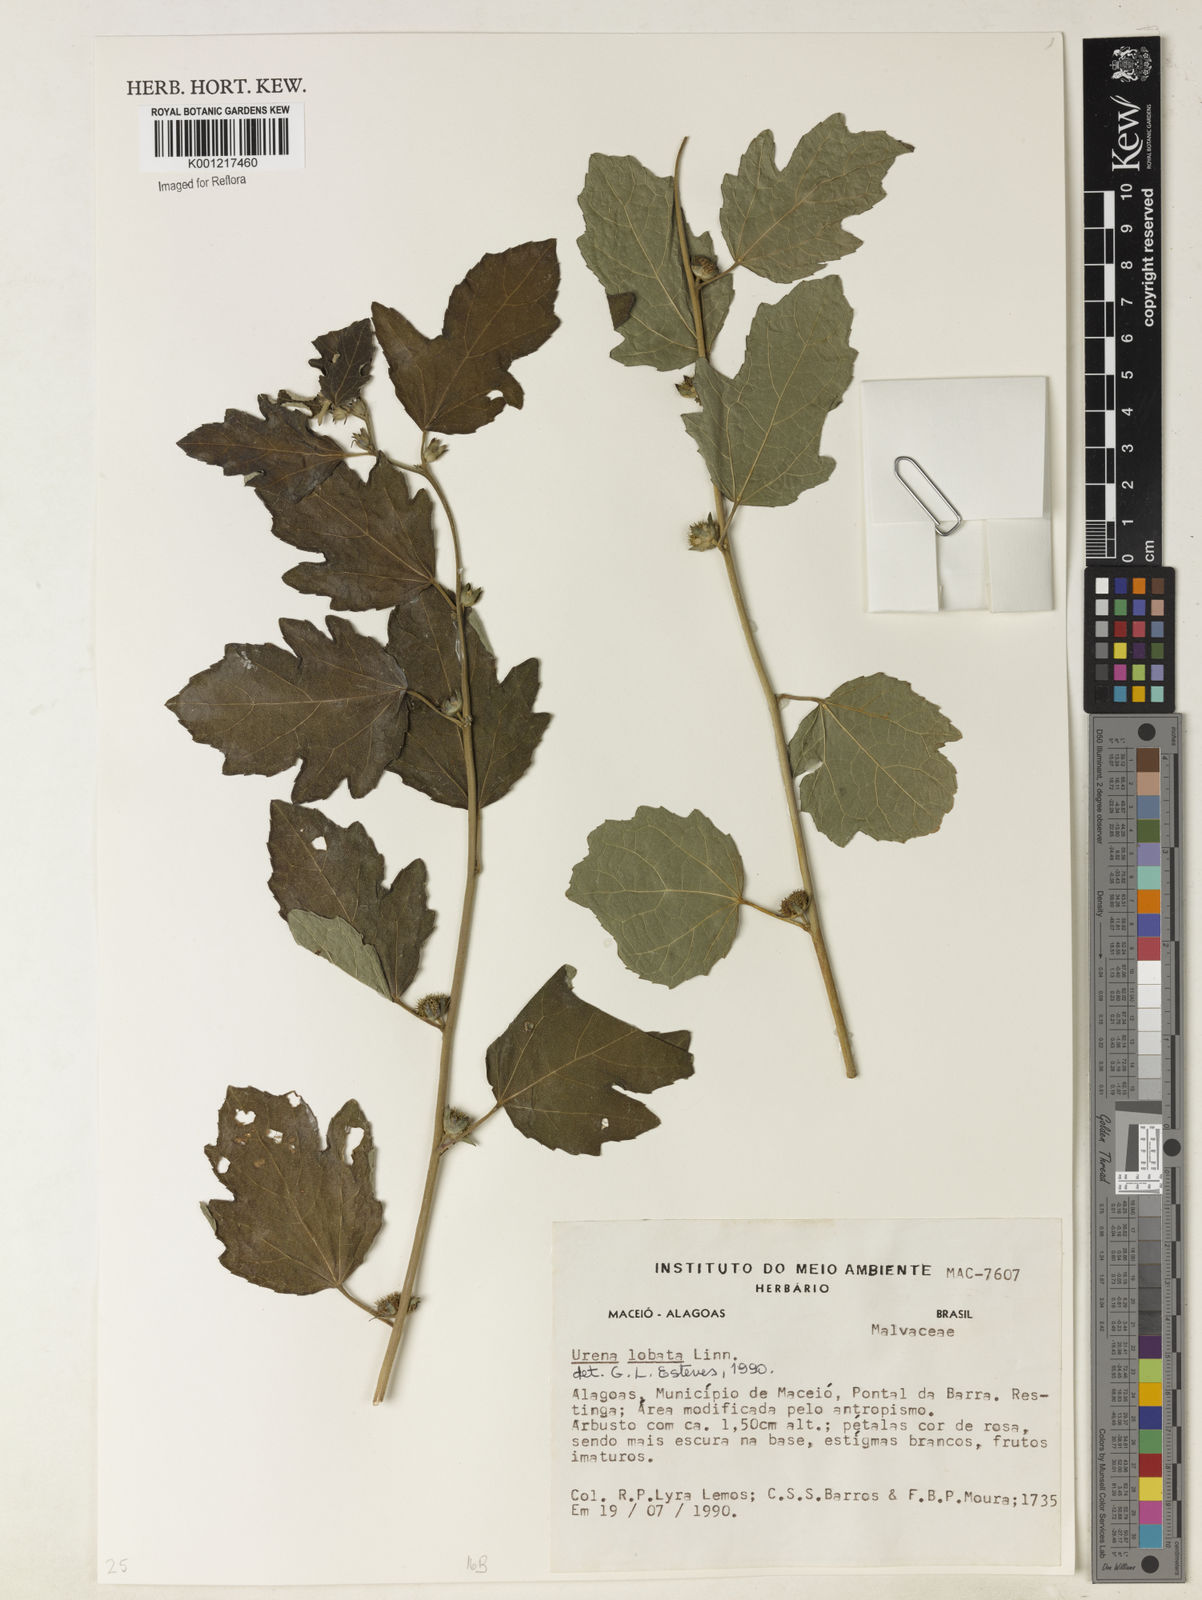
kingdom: Plantae
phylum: Tracheophyta
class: Magnoliopsida
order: Malvales
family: Malvaceae
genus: Urena
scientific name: Urena lobata
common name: Caesarweed
